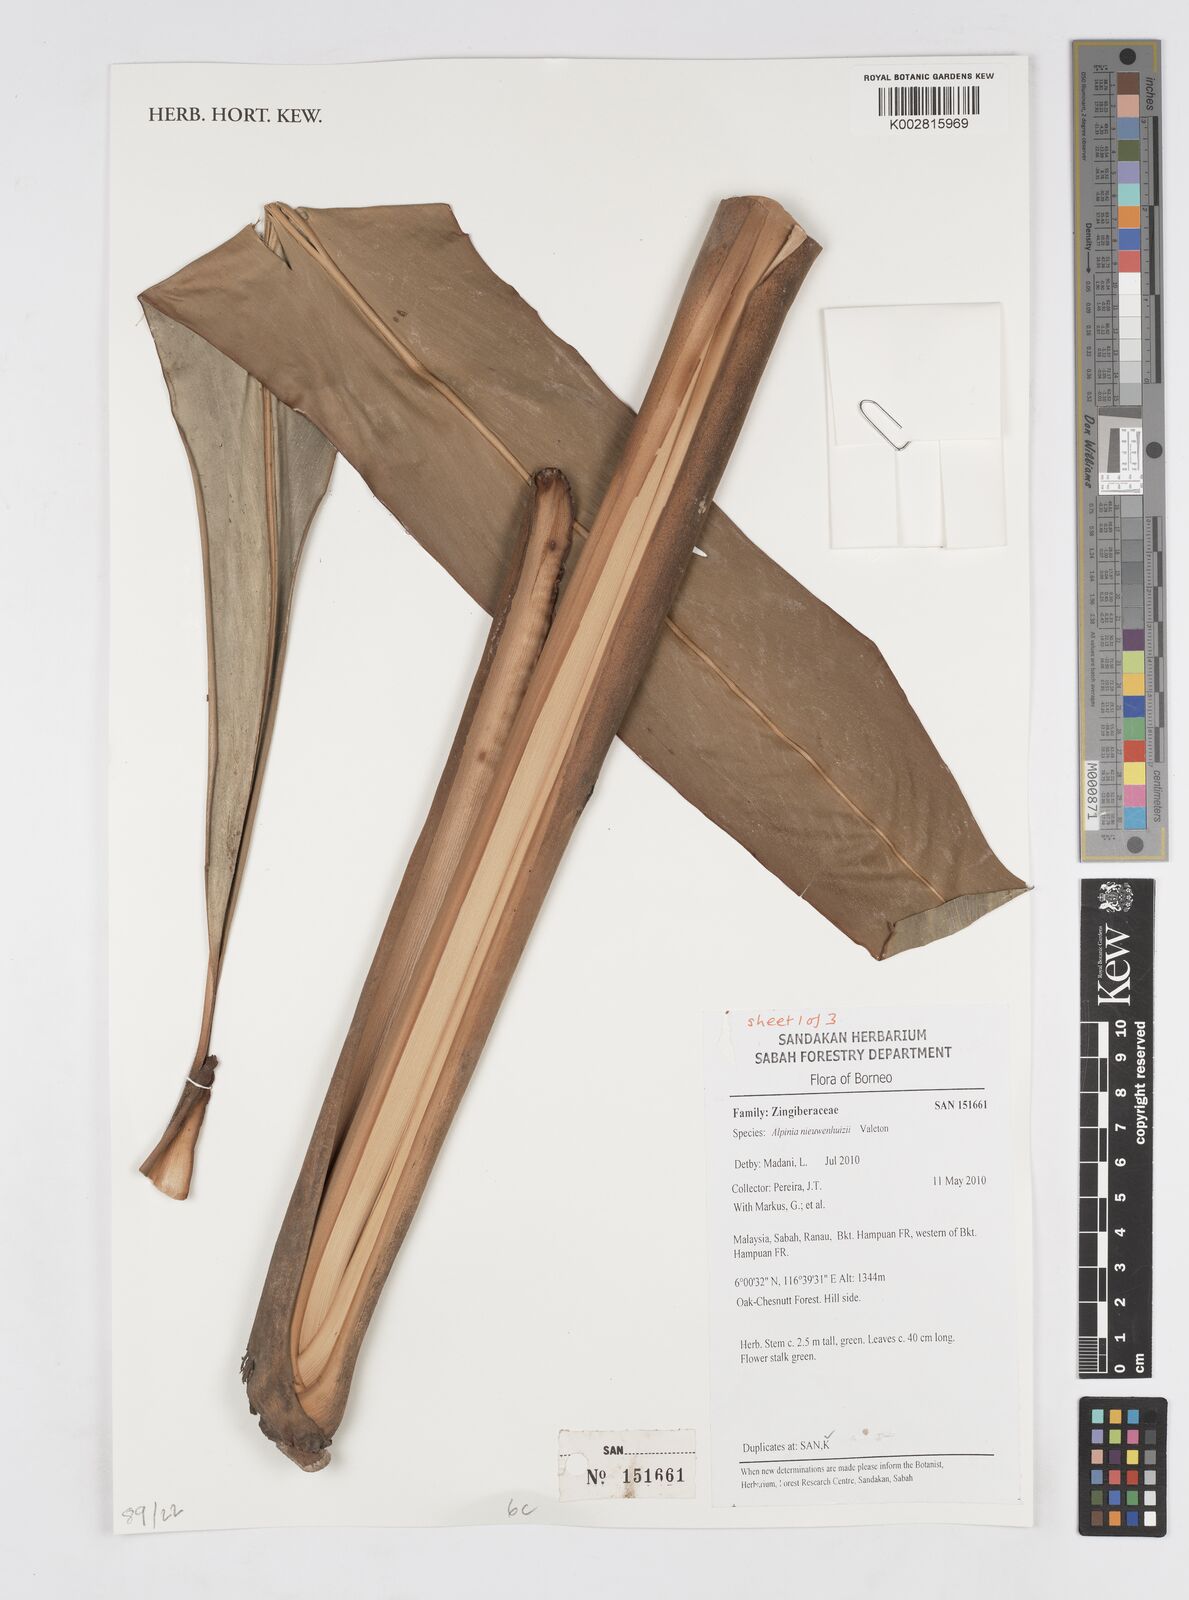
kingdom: Plantae
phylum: Tracheophyta
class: Liliopsida
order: Zingiberales
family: Zingiberaceae
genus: Alpinia
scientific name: Alpinia nieuwenhuizii
